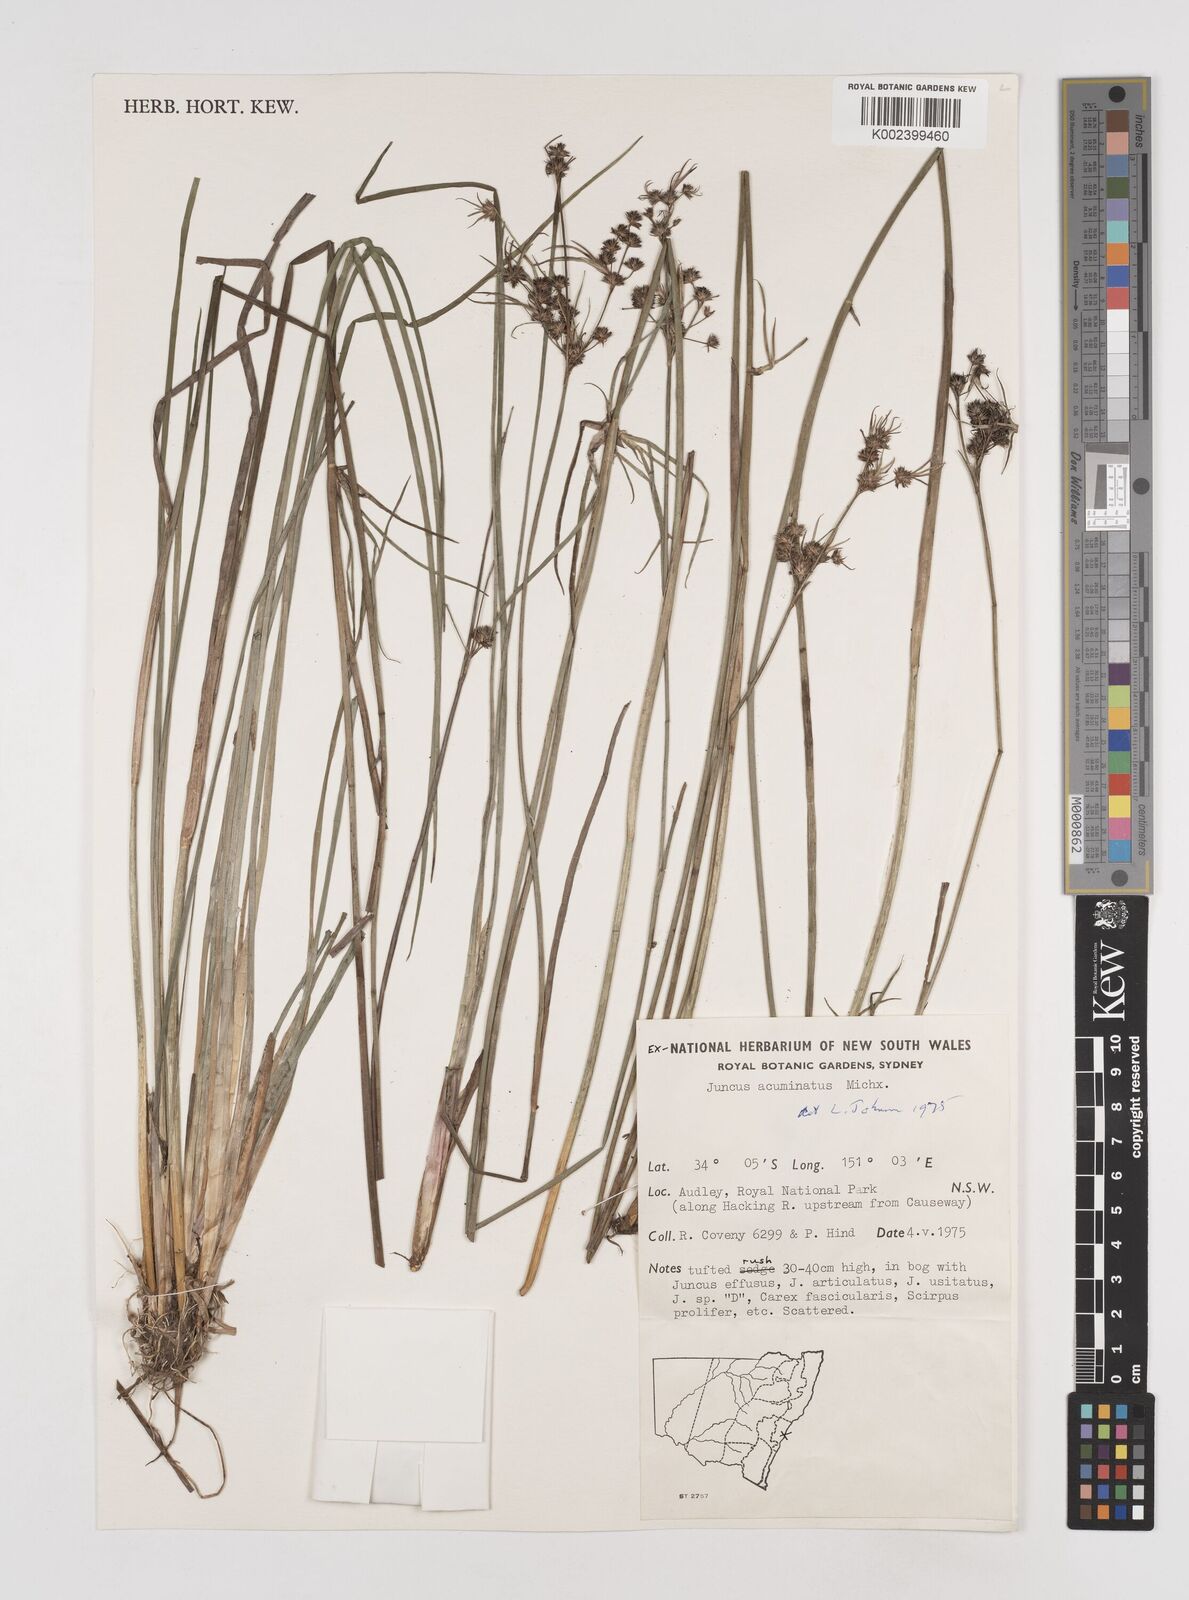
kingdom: Plantae
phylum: Tracheophyta
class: Liliopsida
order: Poales
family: Juncaceae
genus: Juncus
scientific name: Juncus arcticus
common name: Arctic rush
